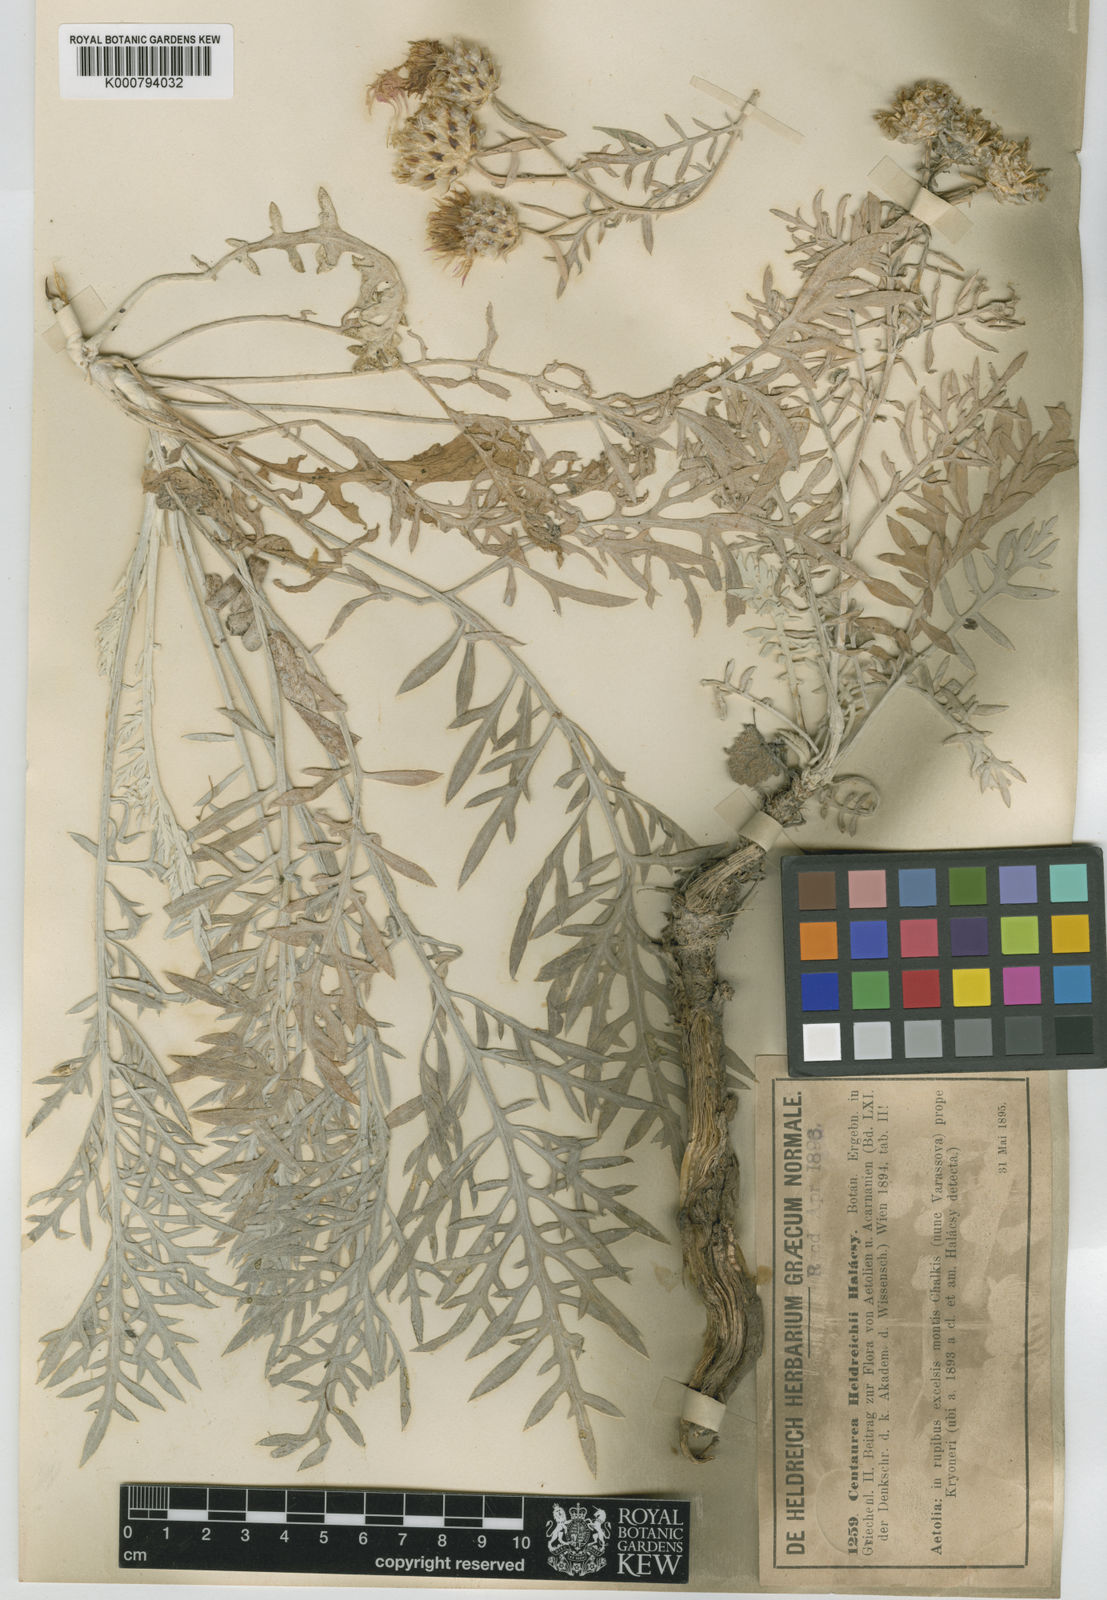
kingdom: Plantae
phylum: Tracheophyta
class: Magnoliopsida
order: Asterales
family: Asteraceae
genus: Centaurea
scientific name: Centaurea alba
